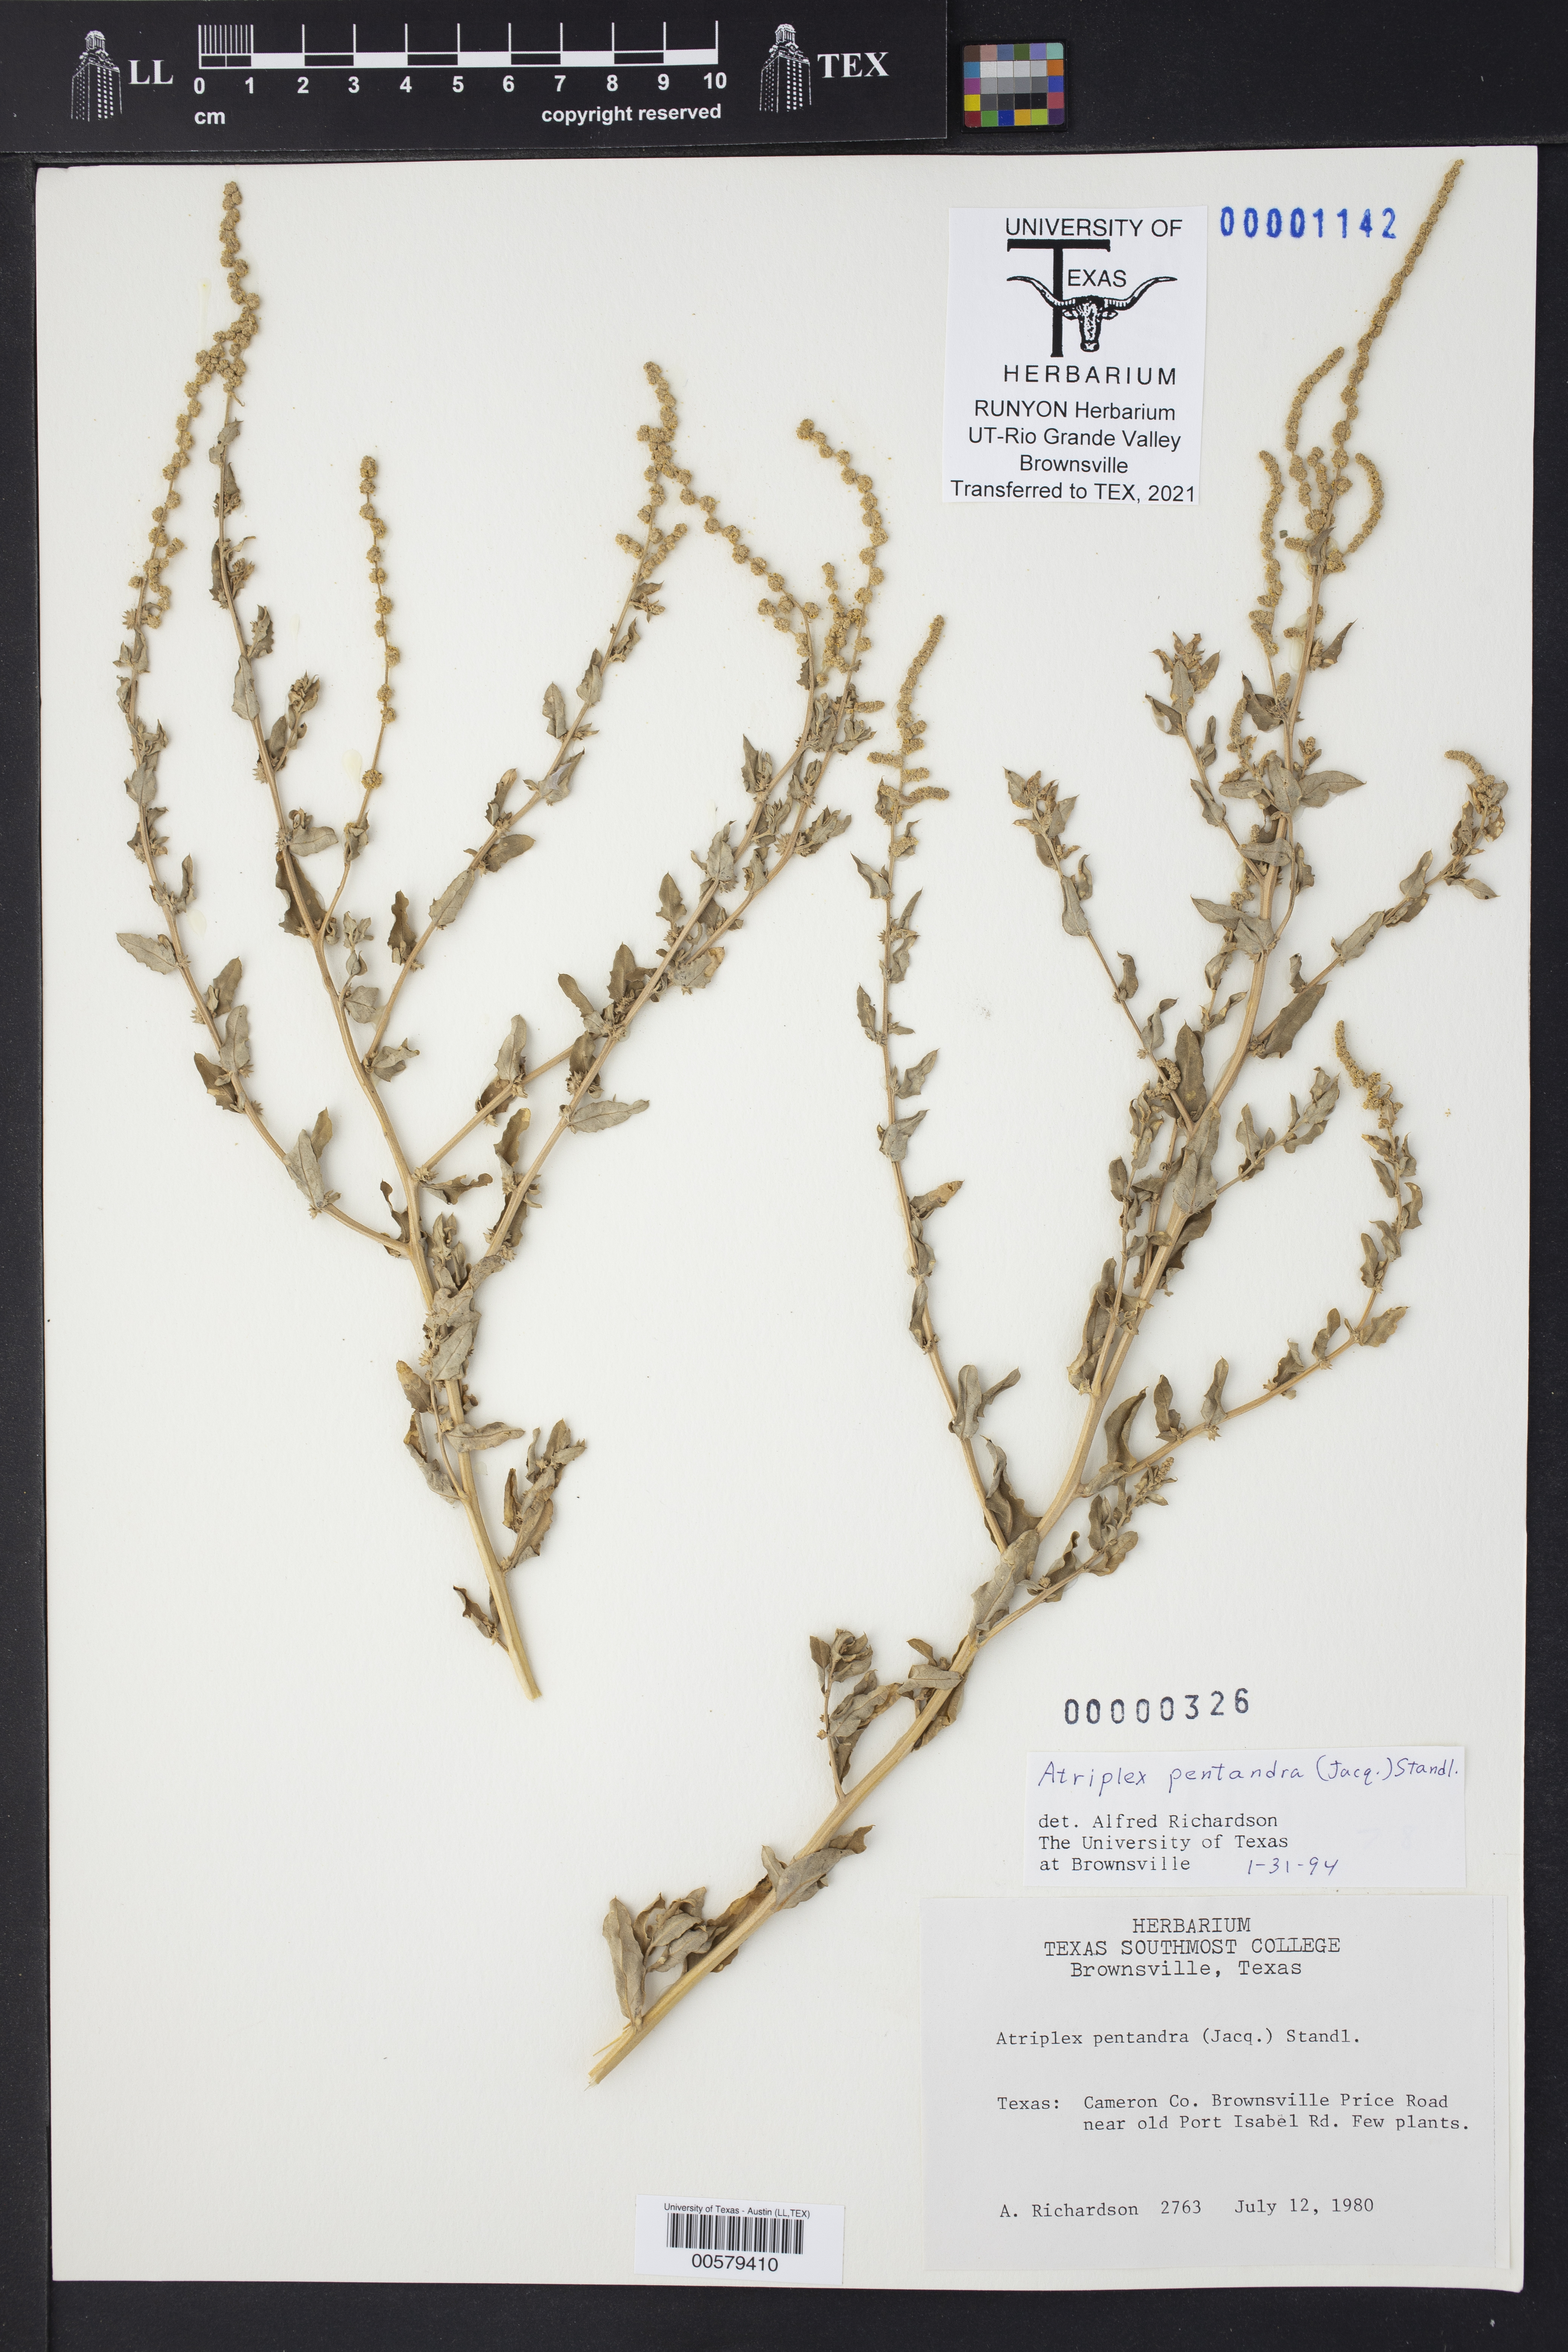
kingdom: Plantae
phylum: Tracheophyta
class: Magnoliopsida
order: Caryophyllales
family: Amaranthaceae
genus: Atriplex
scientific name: Atriplex cristata
